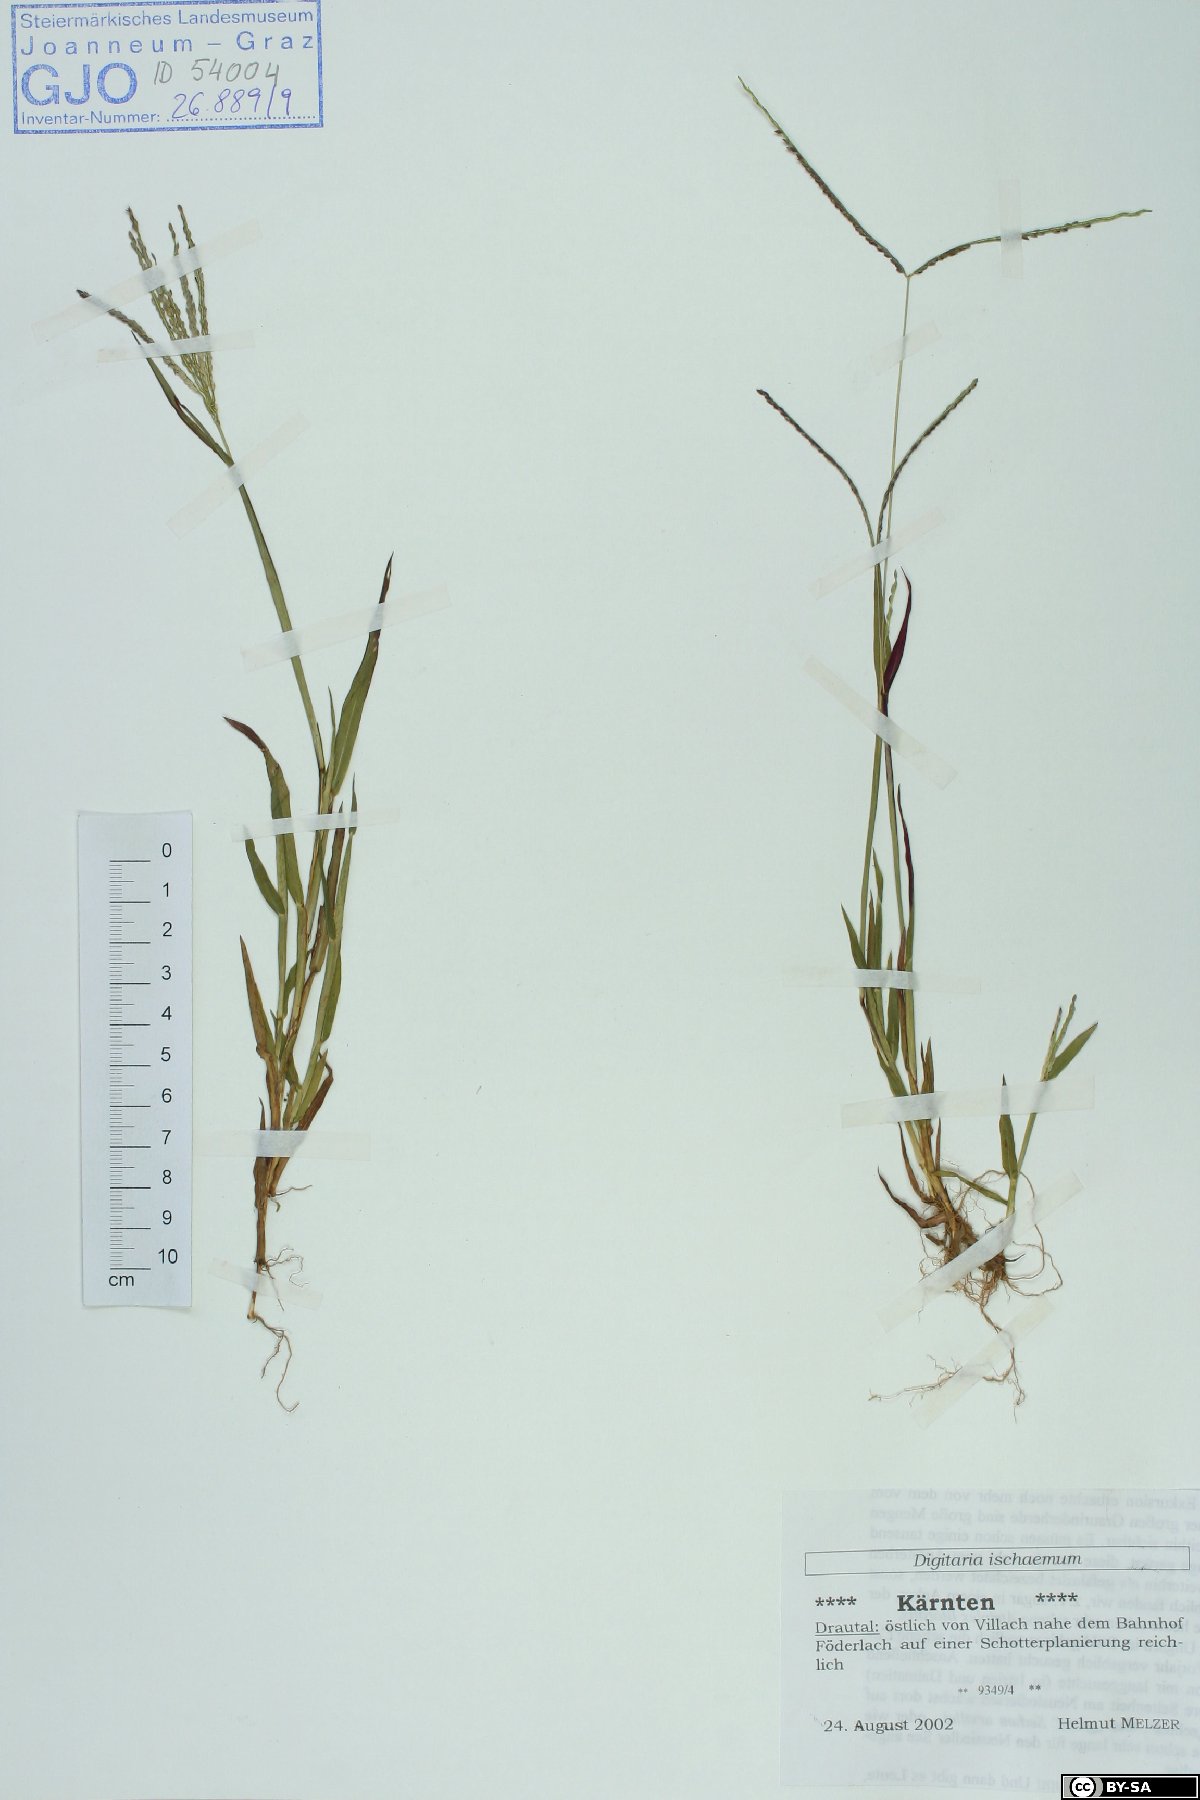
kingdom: Plantae
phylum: Tracheophyta
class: Liliopsida
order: Poales
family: Poaceae
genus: Digitaria
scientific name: Digitaria ischaemum
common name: Smooth crabgrass
